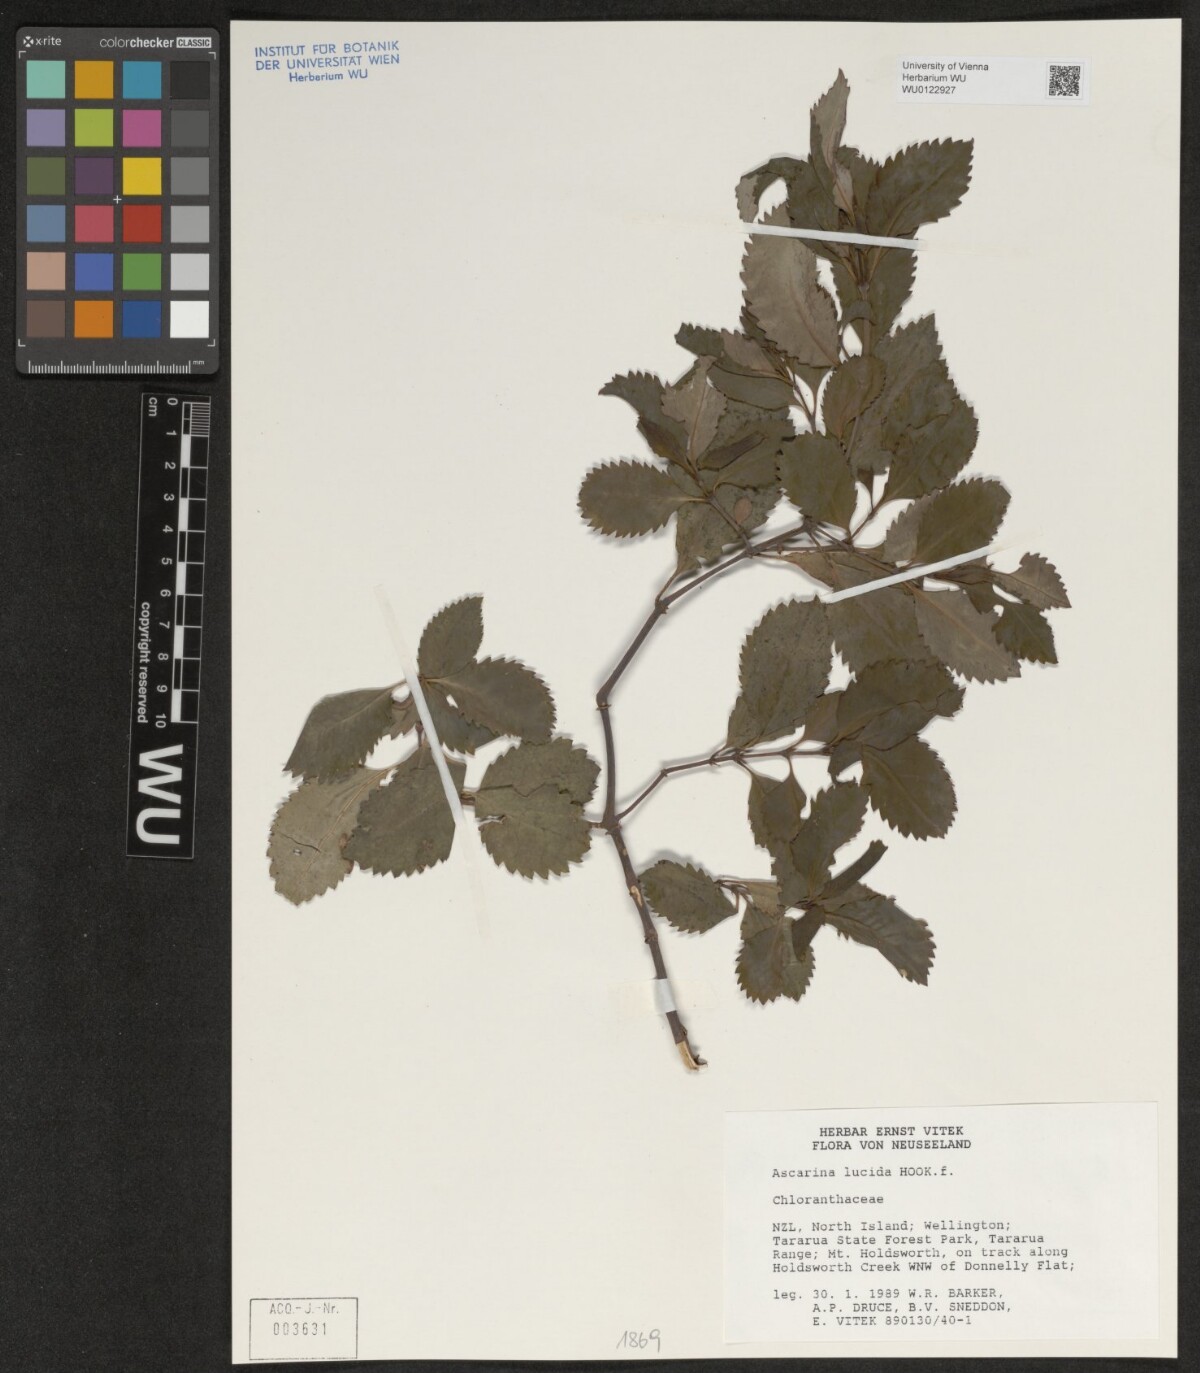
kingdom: Plantae
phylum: Tracheophyta
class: Magnoliopsida
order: Chloranthales
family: Chloranthaceae
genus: Ascarina
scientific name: Ascarina lucida
